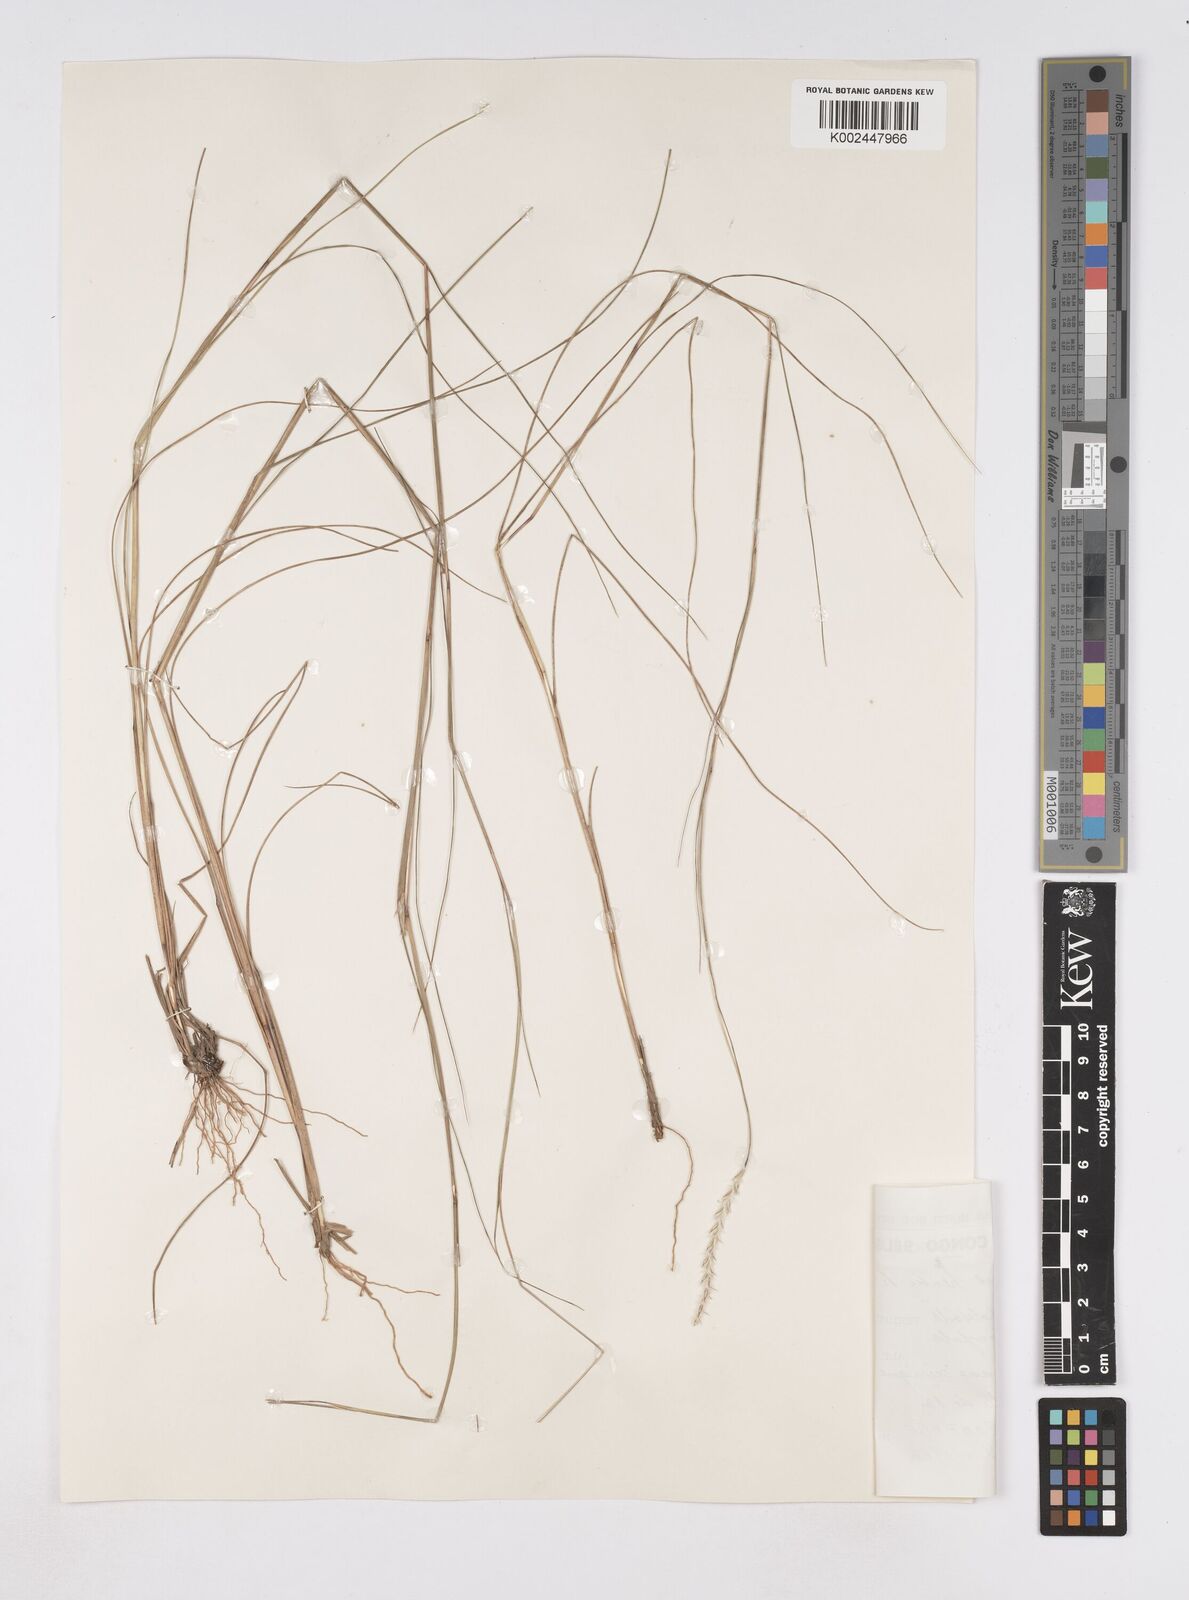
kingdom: Plantae
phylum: Tracheophyta
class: Liliopsida
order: Poales
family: Poaceae
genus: Elionurus
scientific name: Elionurus hensii
